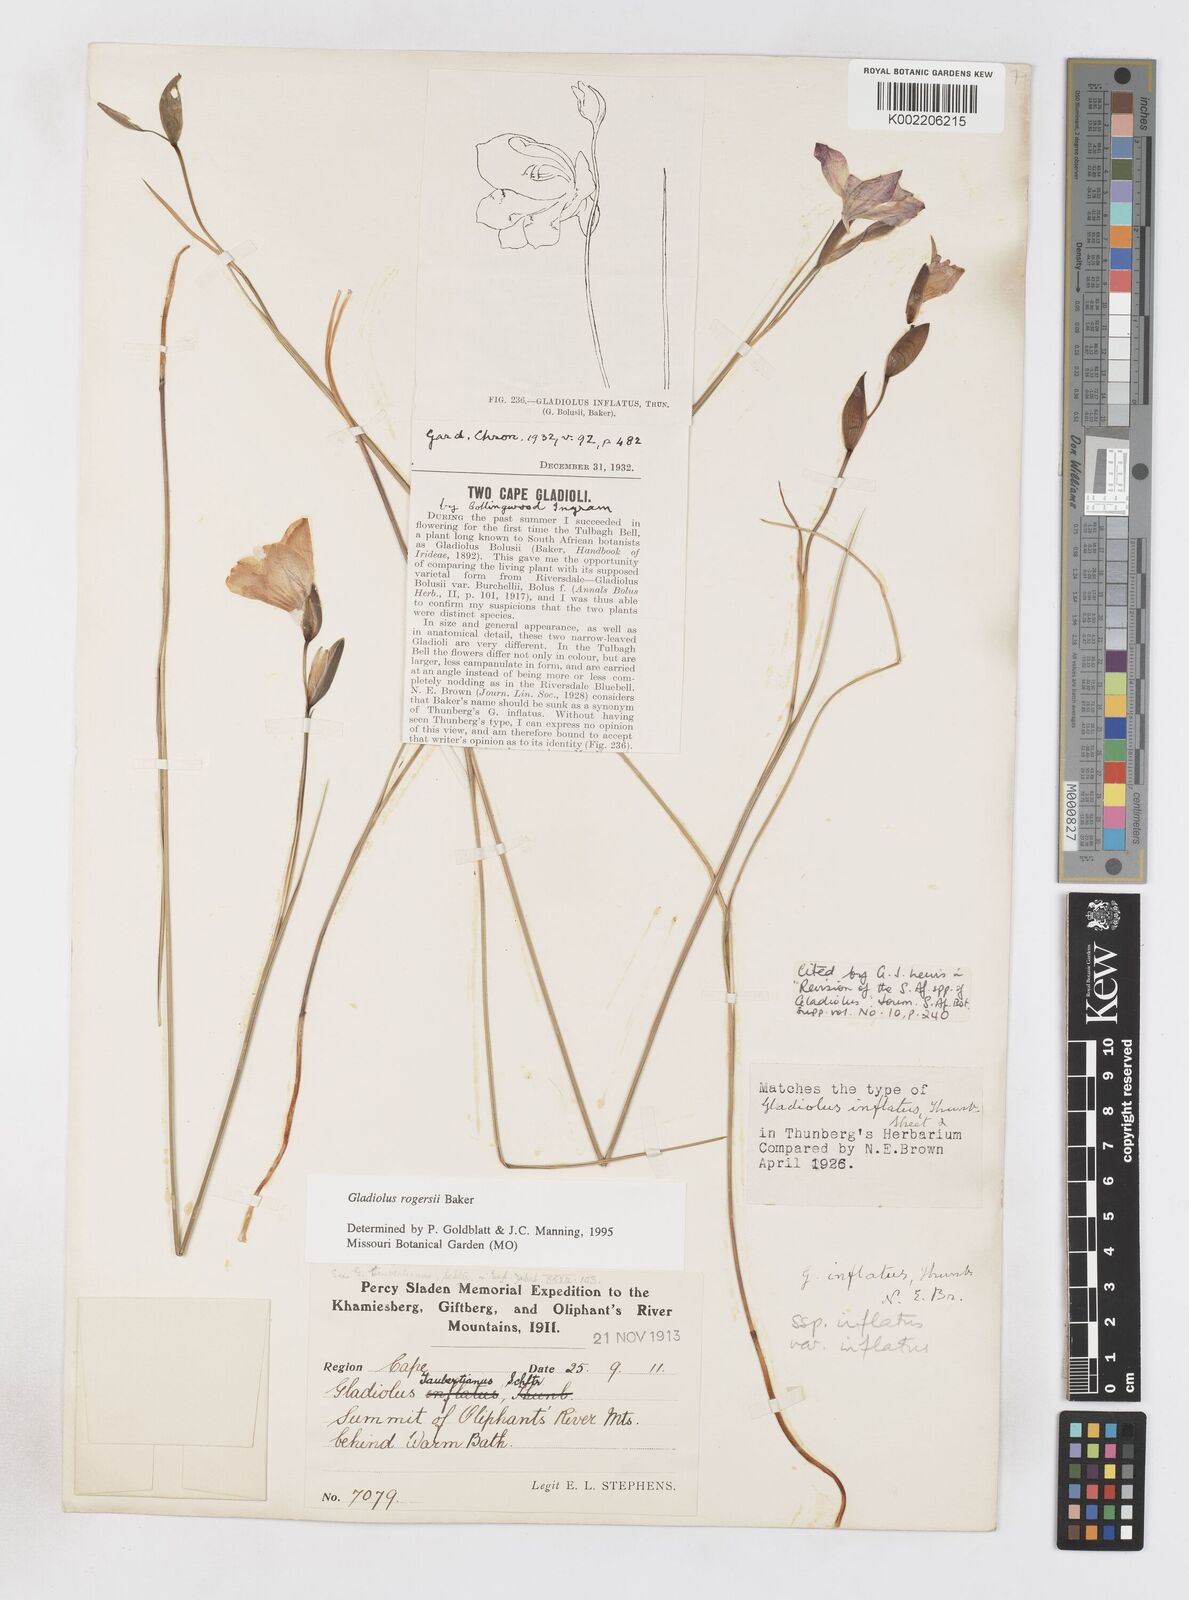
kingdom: Plantae
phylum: Tracheophyta
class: Liliopsida
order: Asparagales
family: Iridaceae
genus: Gladiolus
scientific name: Gladiolus inflatus
